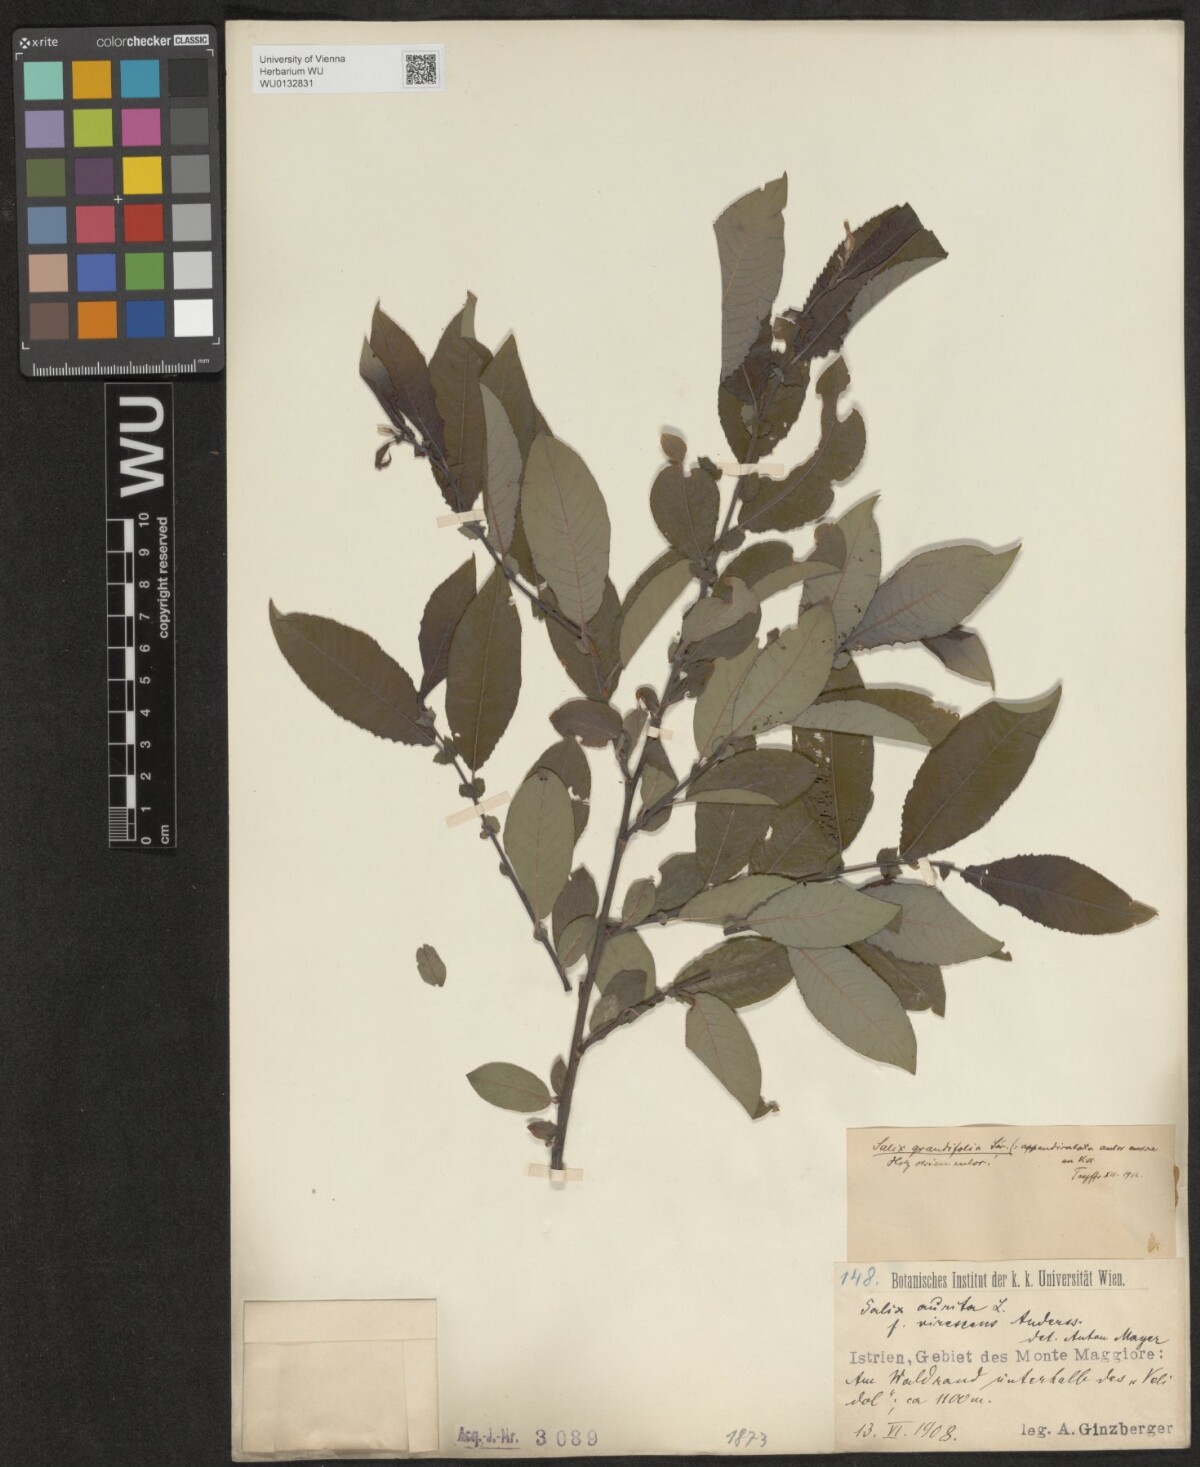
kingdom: Plantae
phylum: Tracheophyta
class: Magnoliopsida
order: Malpighiales
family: Salicaceae
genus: Salix
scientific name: Salix appendiculata
